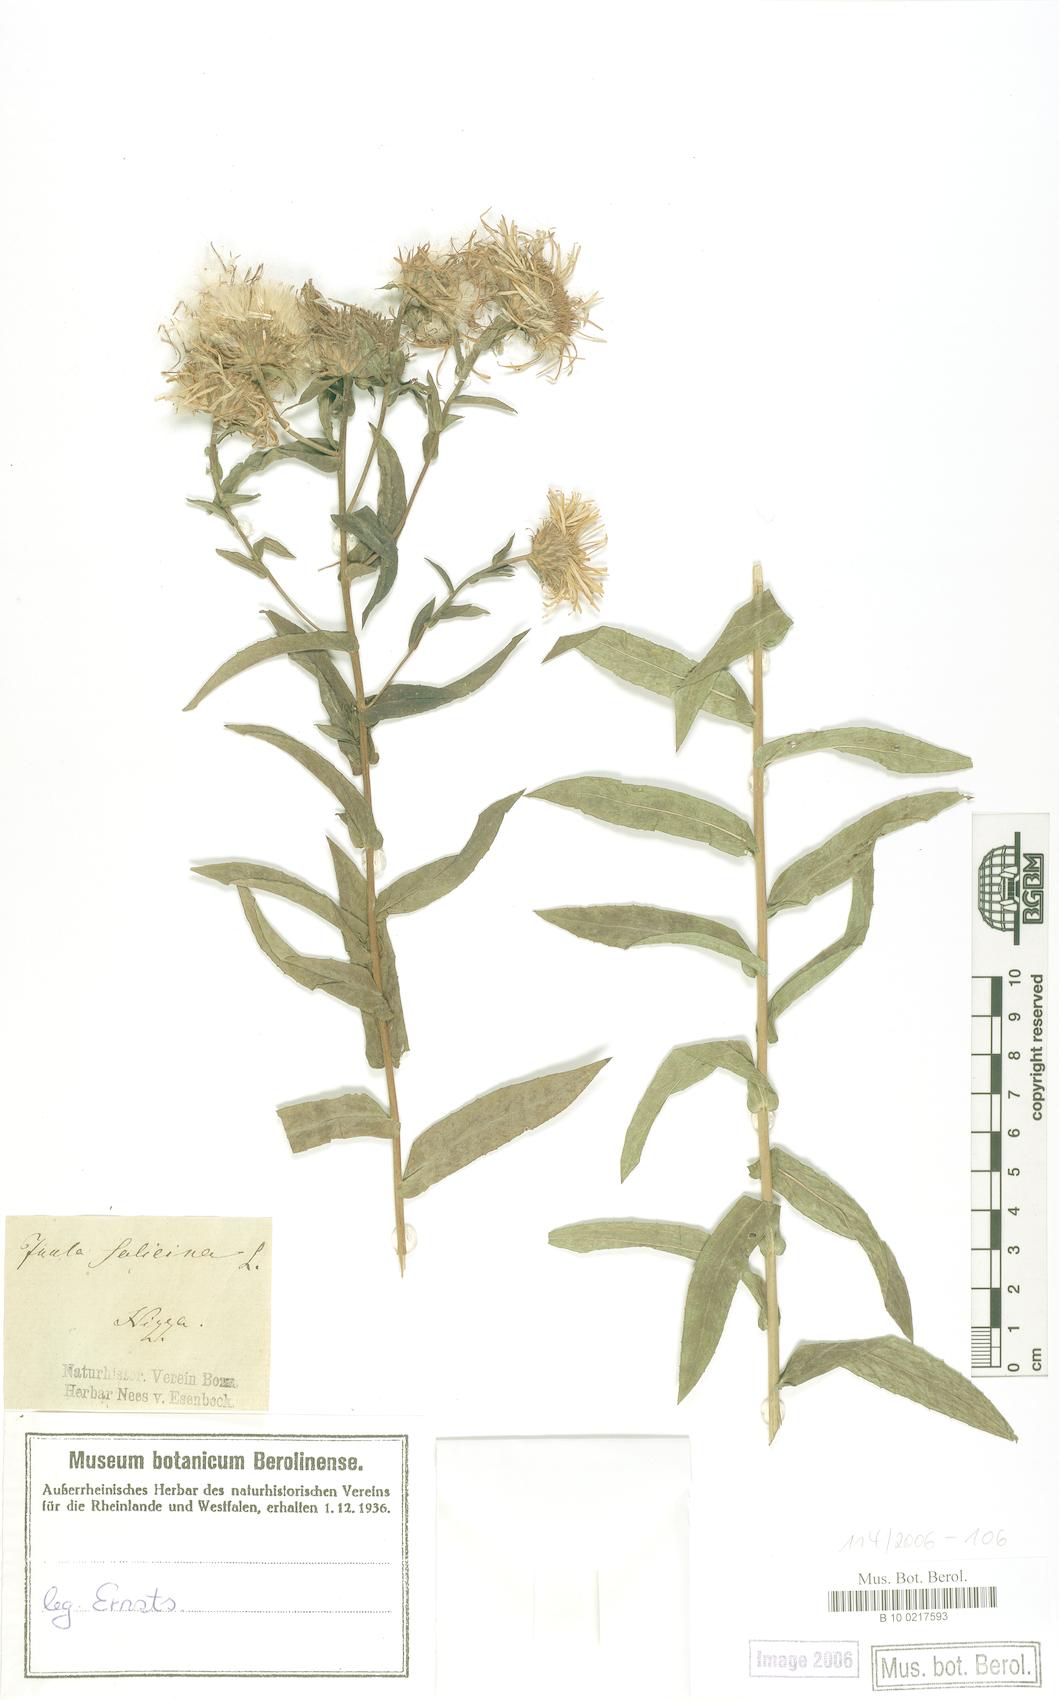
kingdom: Plantae
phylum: Tracheophyta
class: Magnoliopsida
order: Asterales
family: Asteraceae
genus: Pentanema
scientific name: Pentanema salicinum
